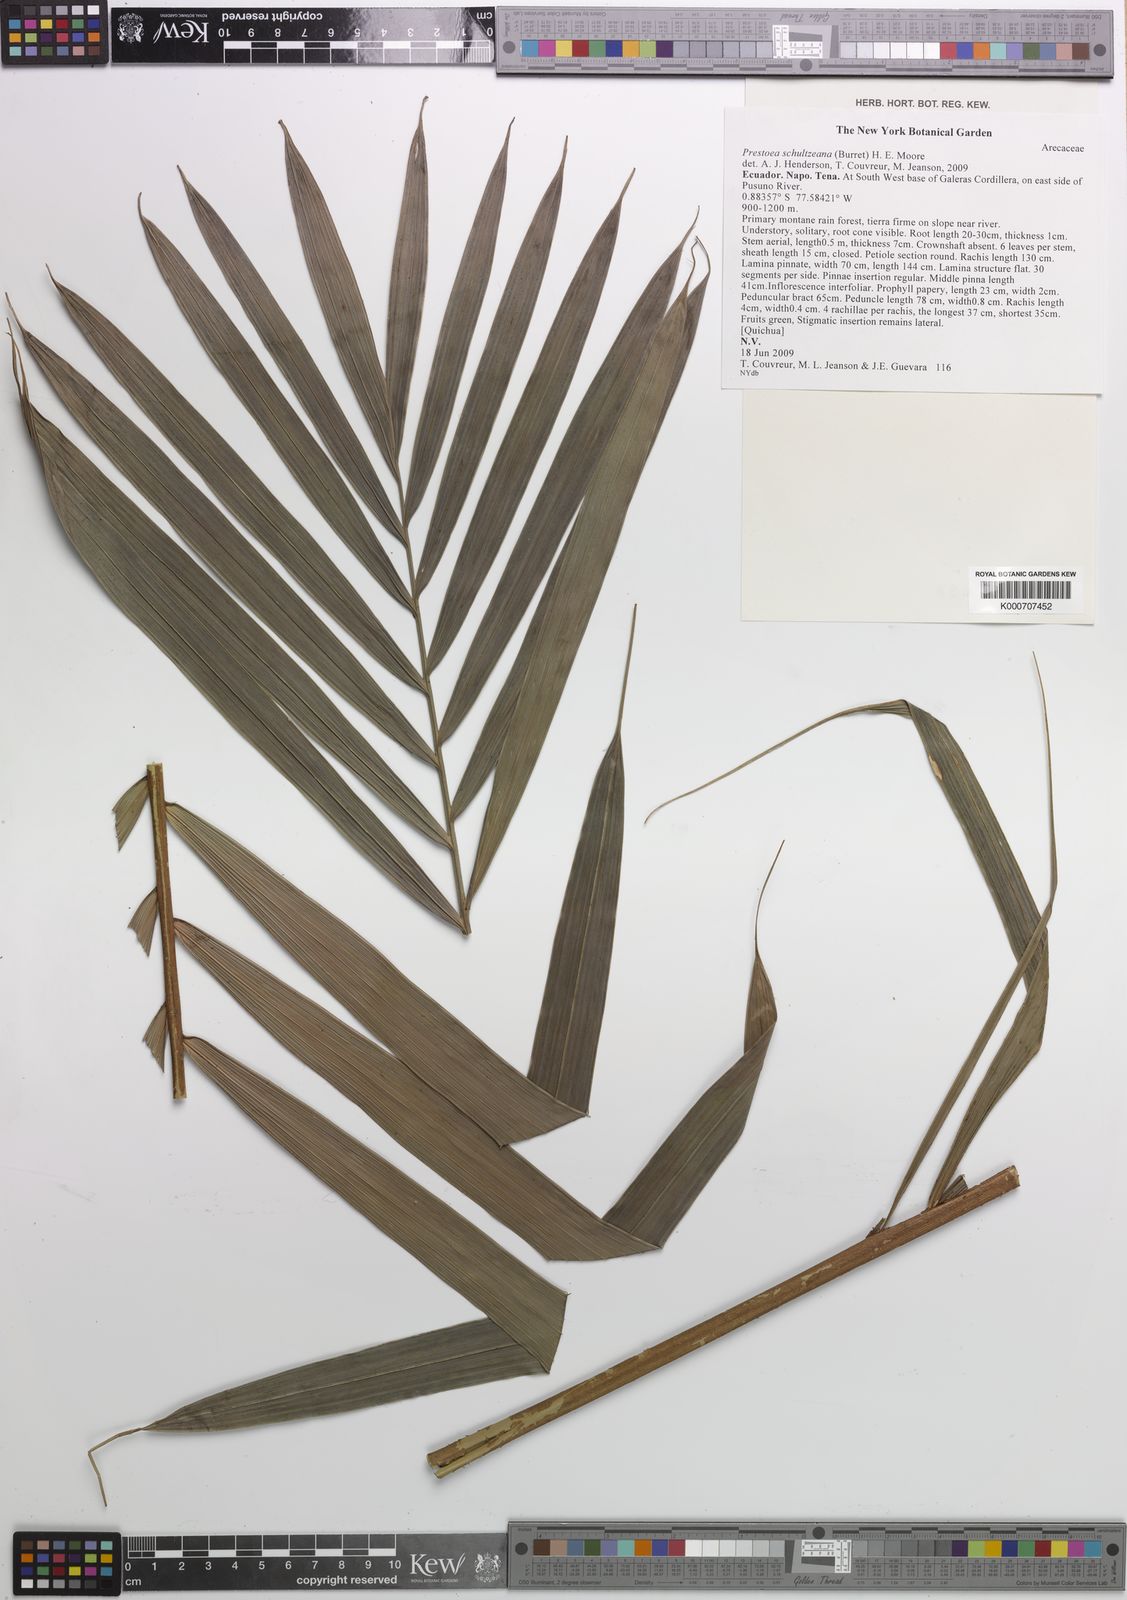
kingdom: Plantae
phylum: Tracheophyta
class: Liliopsida
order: Arecales
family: Arecaceae
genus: Prestoea
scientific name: Prestoea schultzeana
